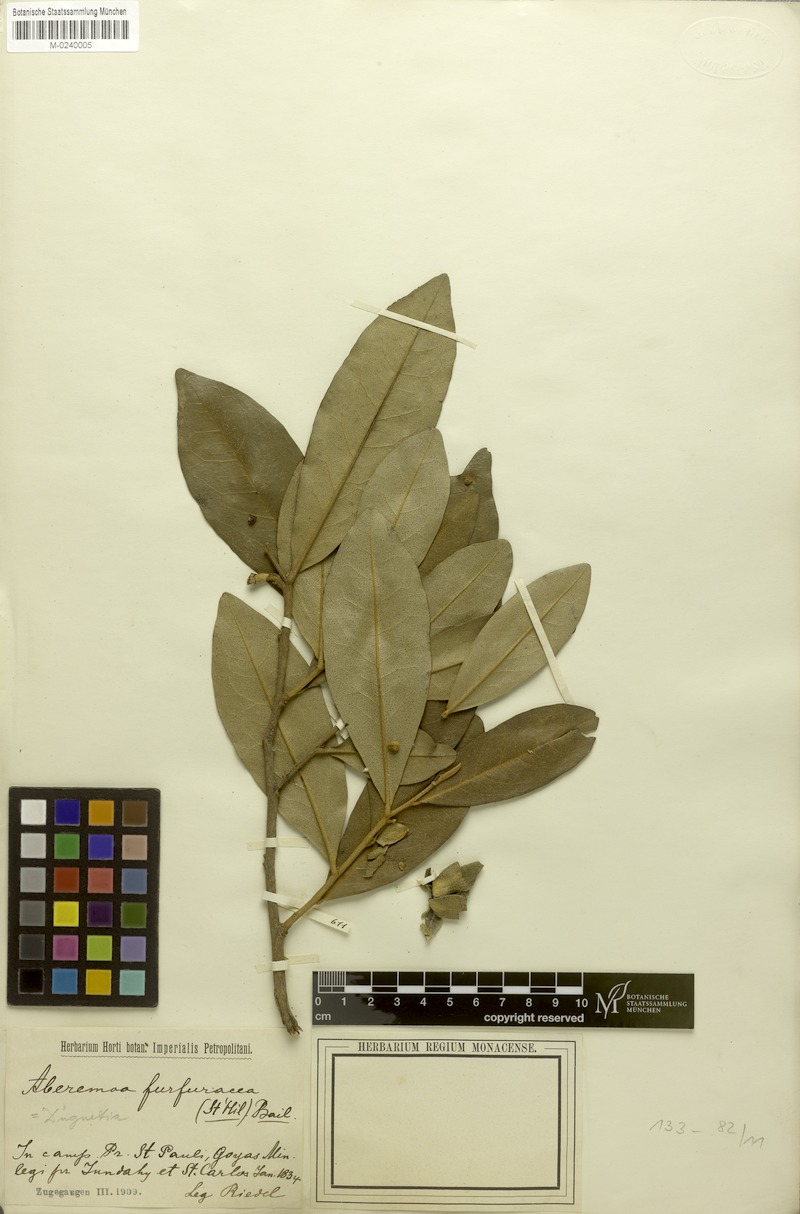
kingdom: Plantae
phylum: Tracheophyta
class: Magnoliopsida
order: Magnoliales
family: Annonaceae
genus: Duguetia
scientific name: Duguetia furfuracea
